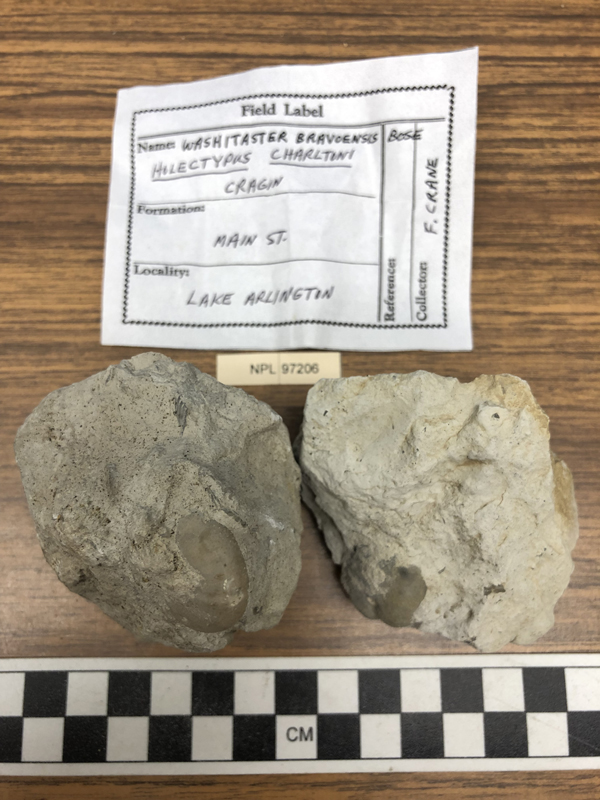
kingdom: Animalia
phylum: Echinodermata
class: Echinoidea
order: Spatangoida
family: Toxasteridae
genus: Washitaster
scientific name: Washitaster bravoensis
